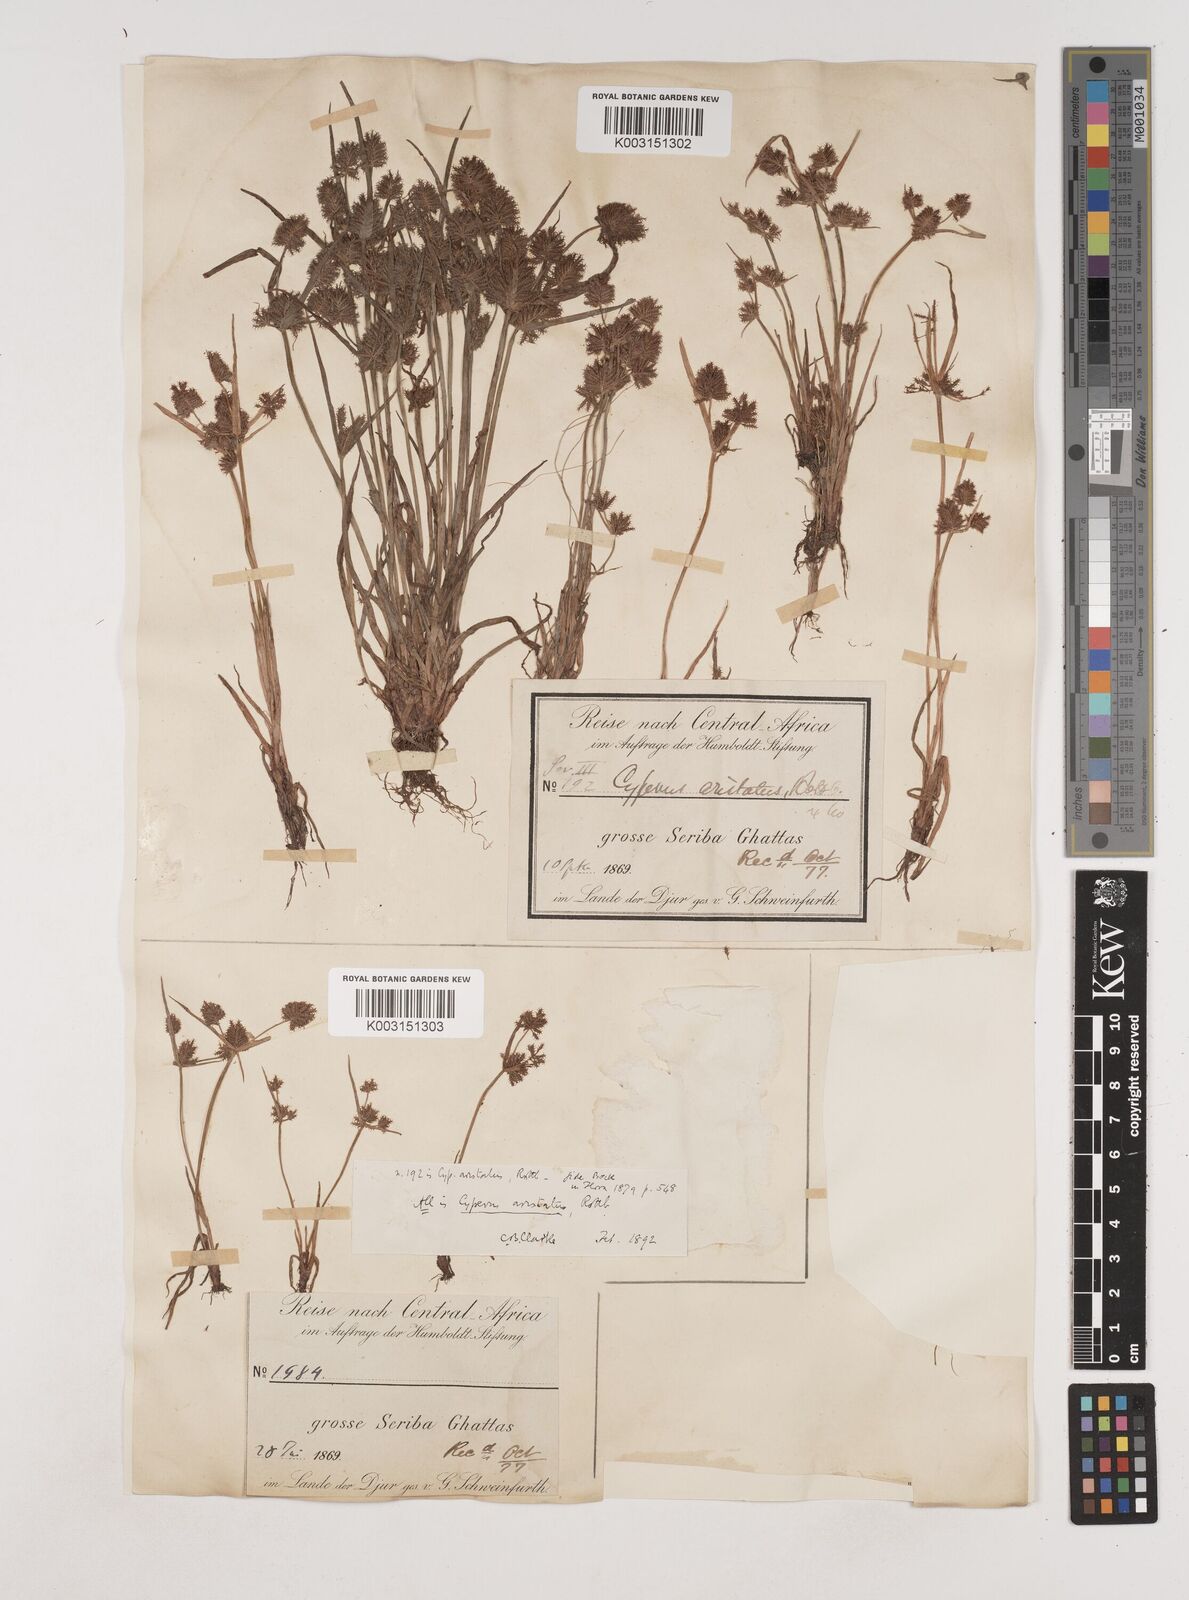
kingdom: Plantae
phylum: Tracheophyta
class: Liliopsida
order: Poales
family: Cyperaceae
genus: Cyperus
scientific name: Cyperus squarrosus
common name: Awned cyperus
